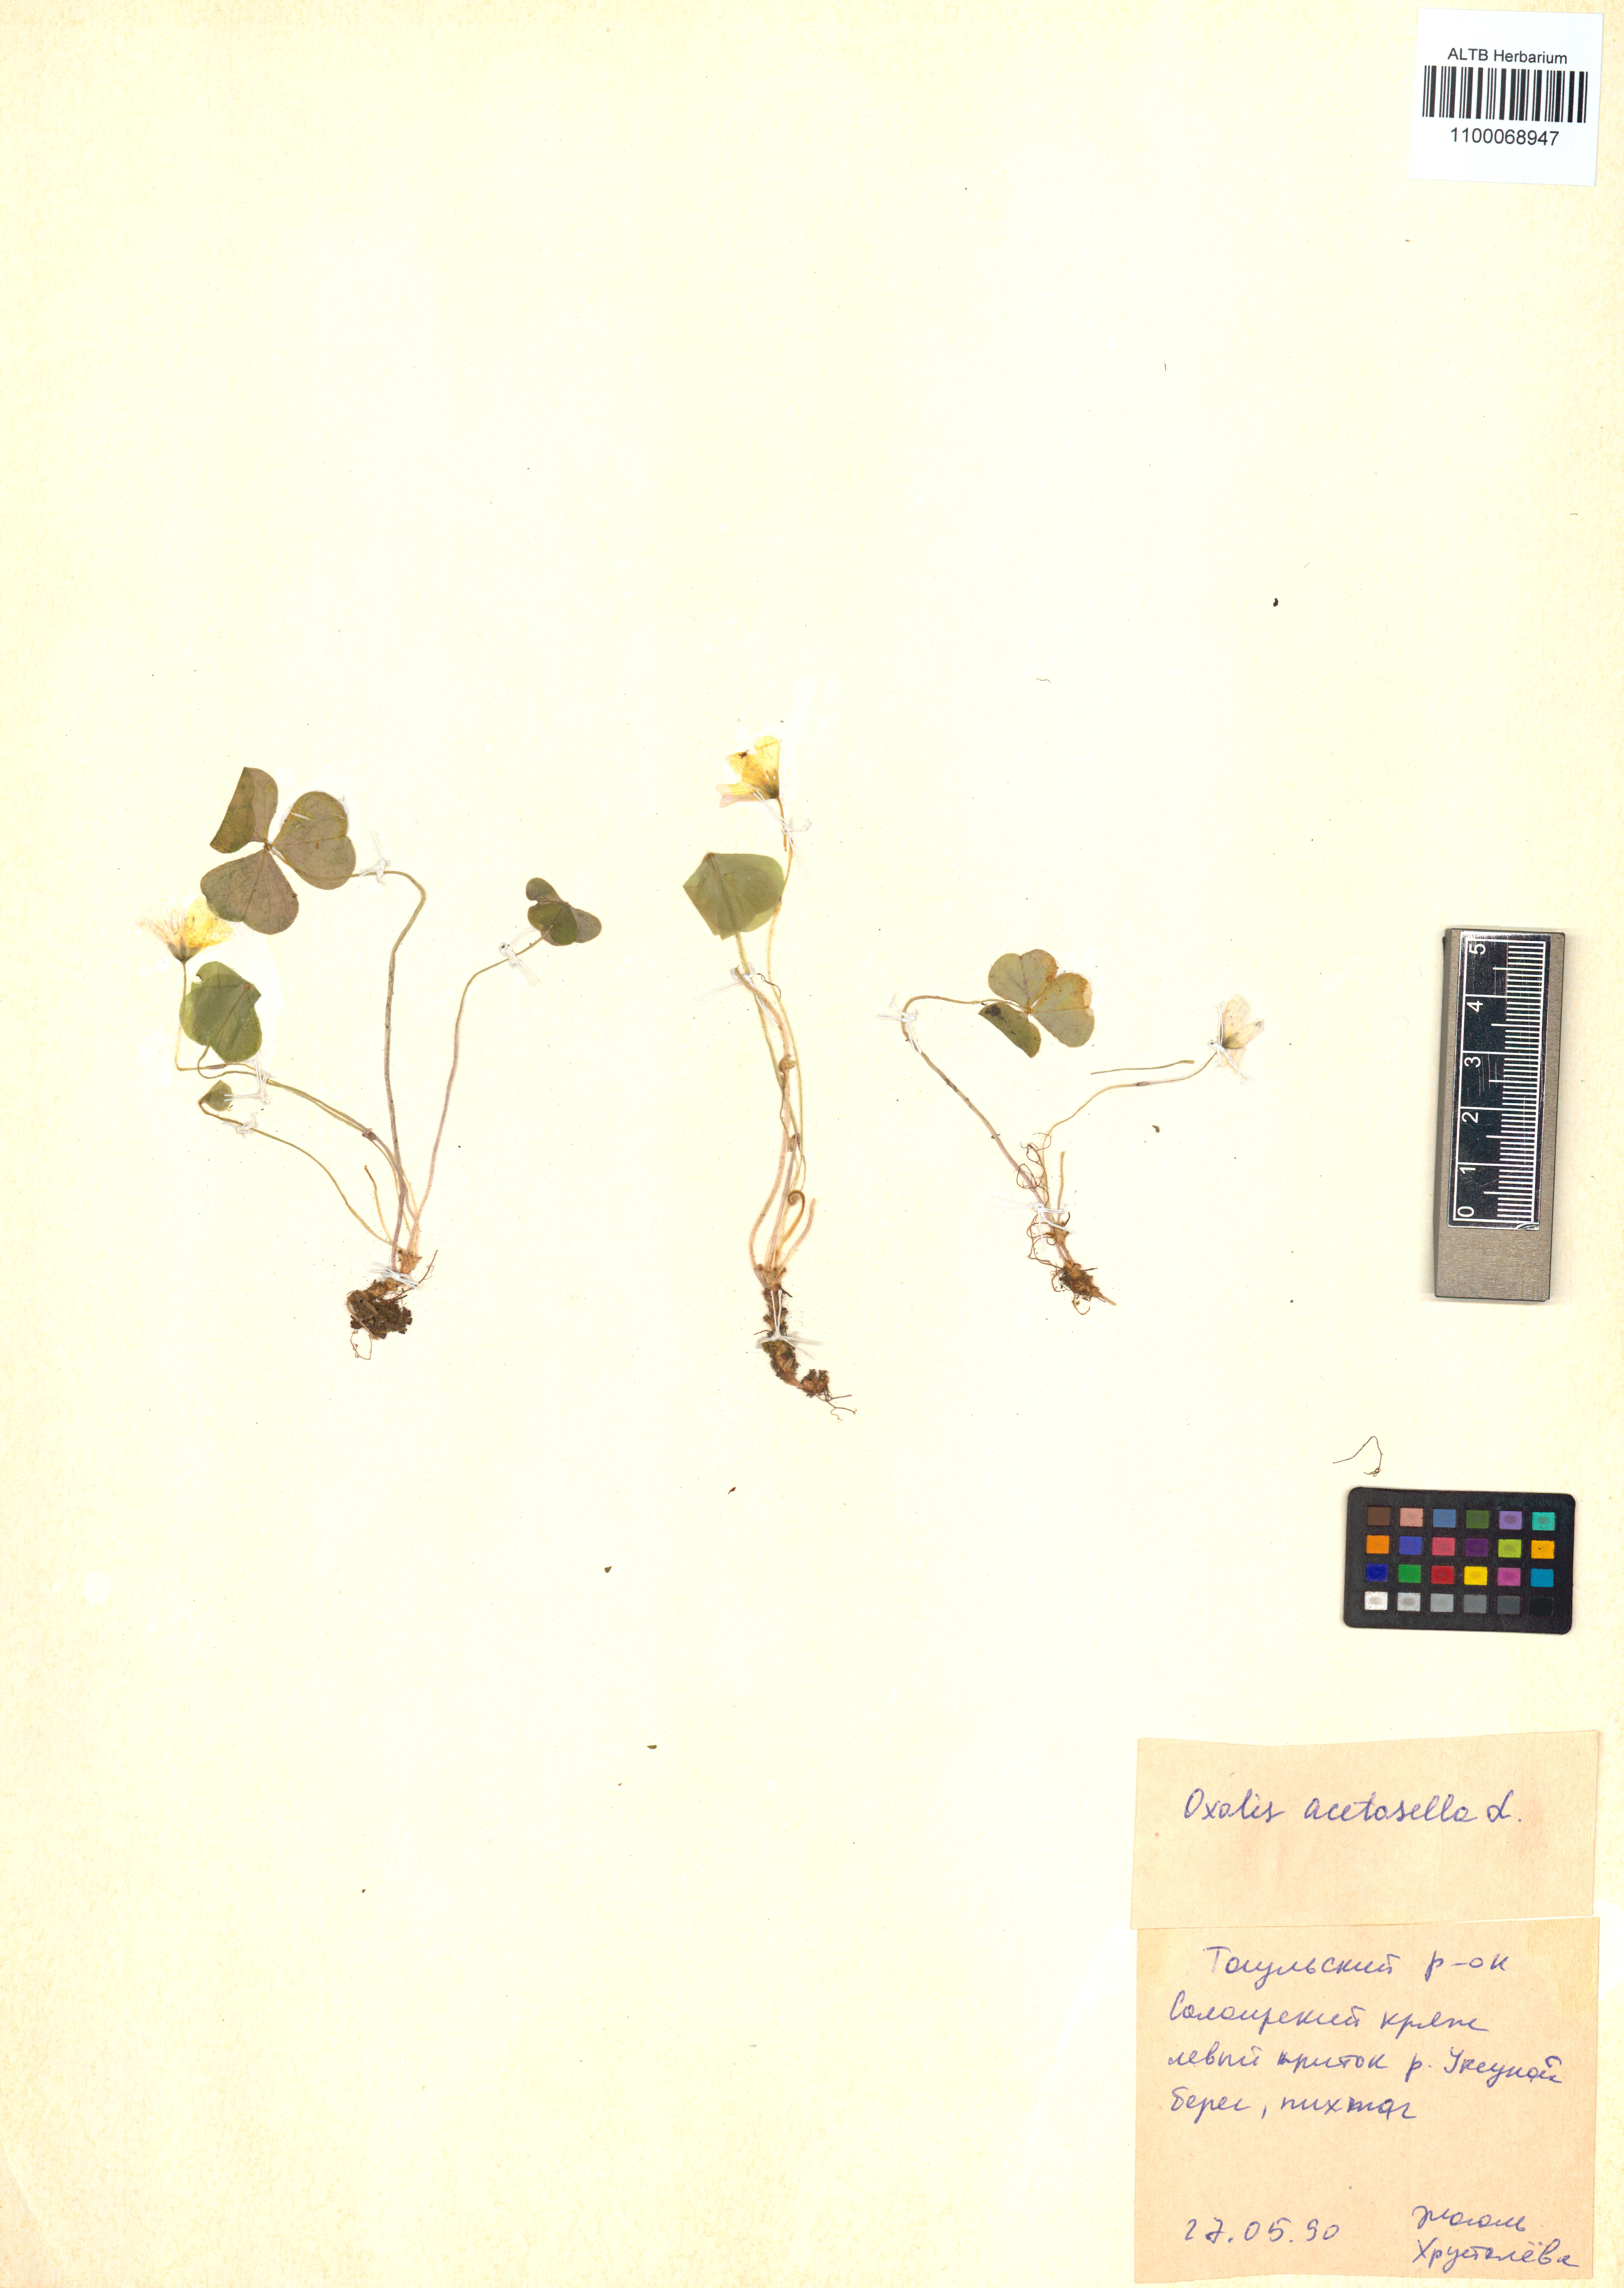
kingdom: Plantae
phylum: Tracheophyta
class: Magnoliopsida
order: Oxalidales
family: Oxalidaceae
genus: Oxalis
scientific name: Oxalis acetosella
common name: Wood-sorrel
